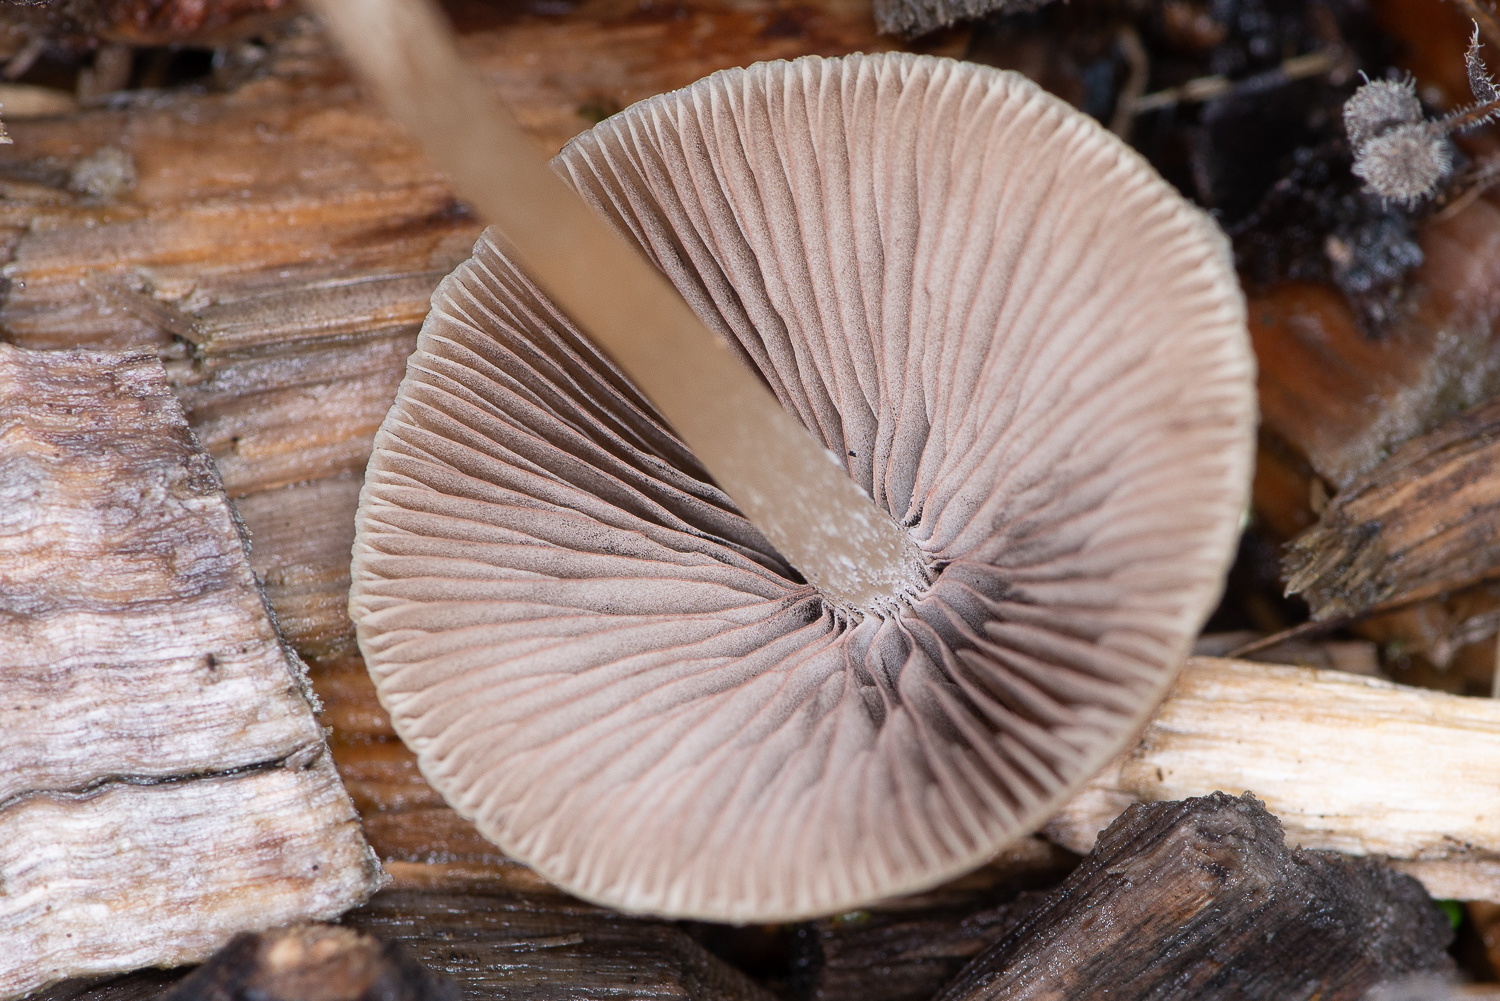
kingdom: Fungi
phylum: Basidiomycota
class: Agaricomycetes
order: Agaricales
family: Psathyrellaceae
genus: Psathyrella
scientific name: Psathyrella
